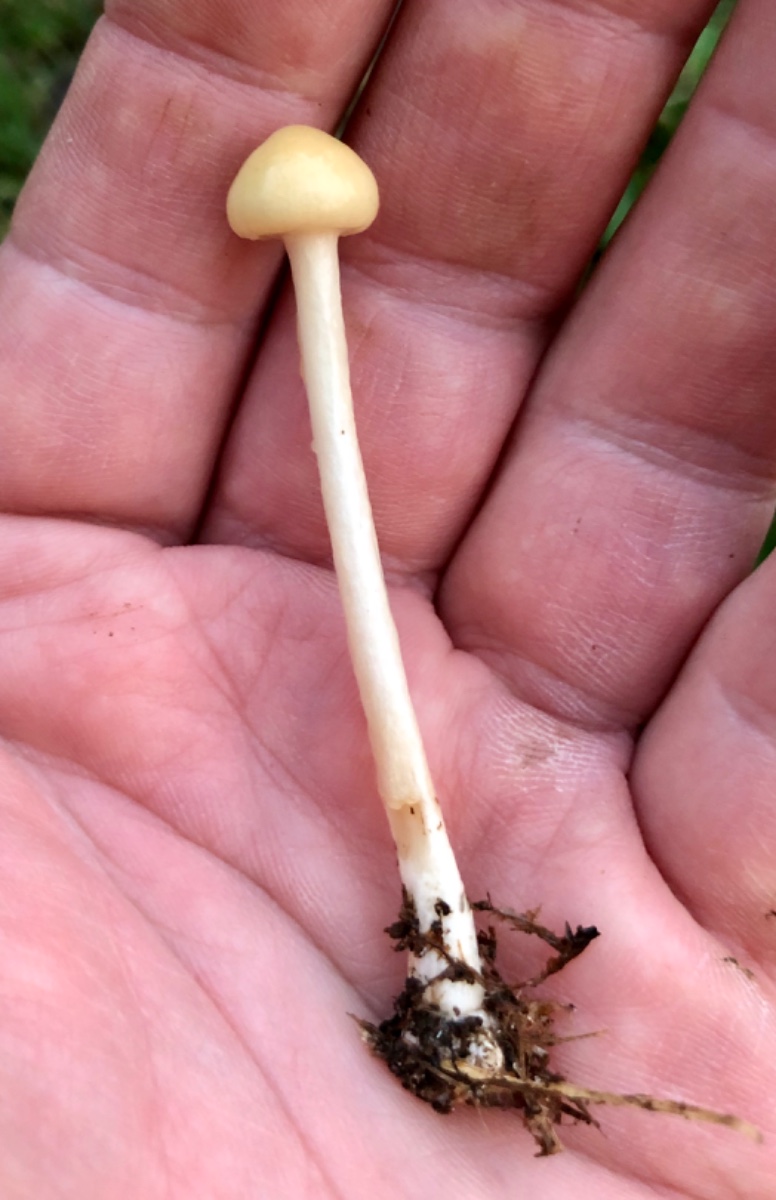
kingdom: Fungi
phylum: Basidiomycota
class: Agaricomycetes
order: Agaricales
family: Strophariaceae
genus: Protostropharia
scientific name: Protostropharia semiglobata
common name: halvkugleformet bredblad
